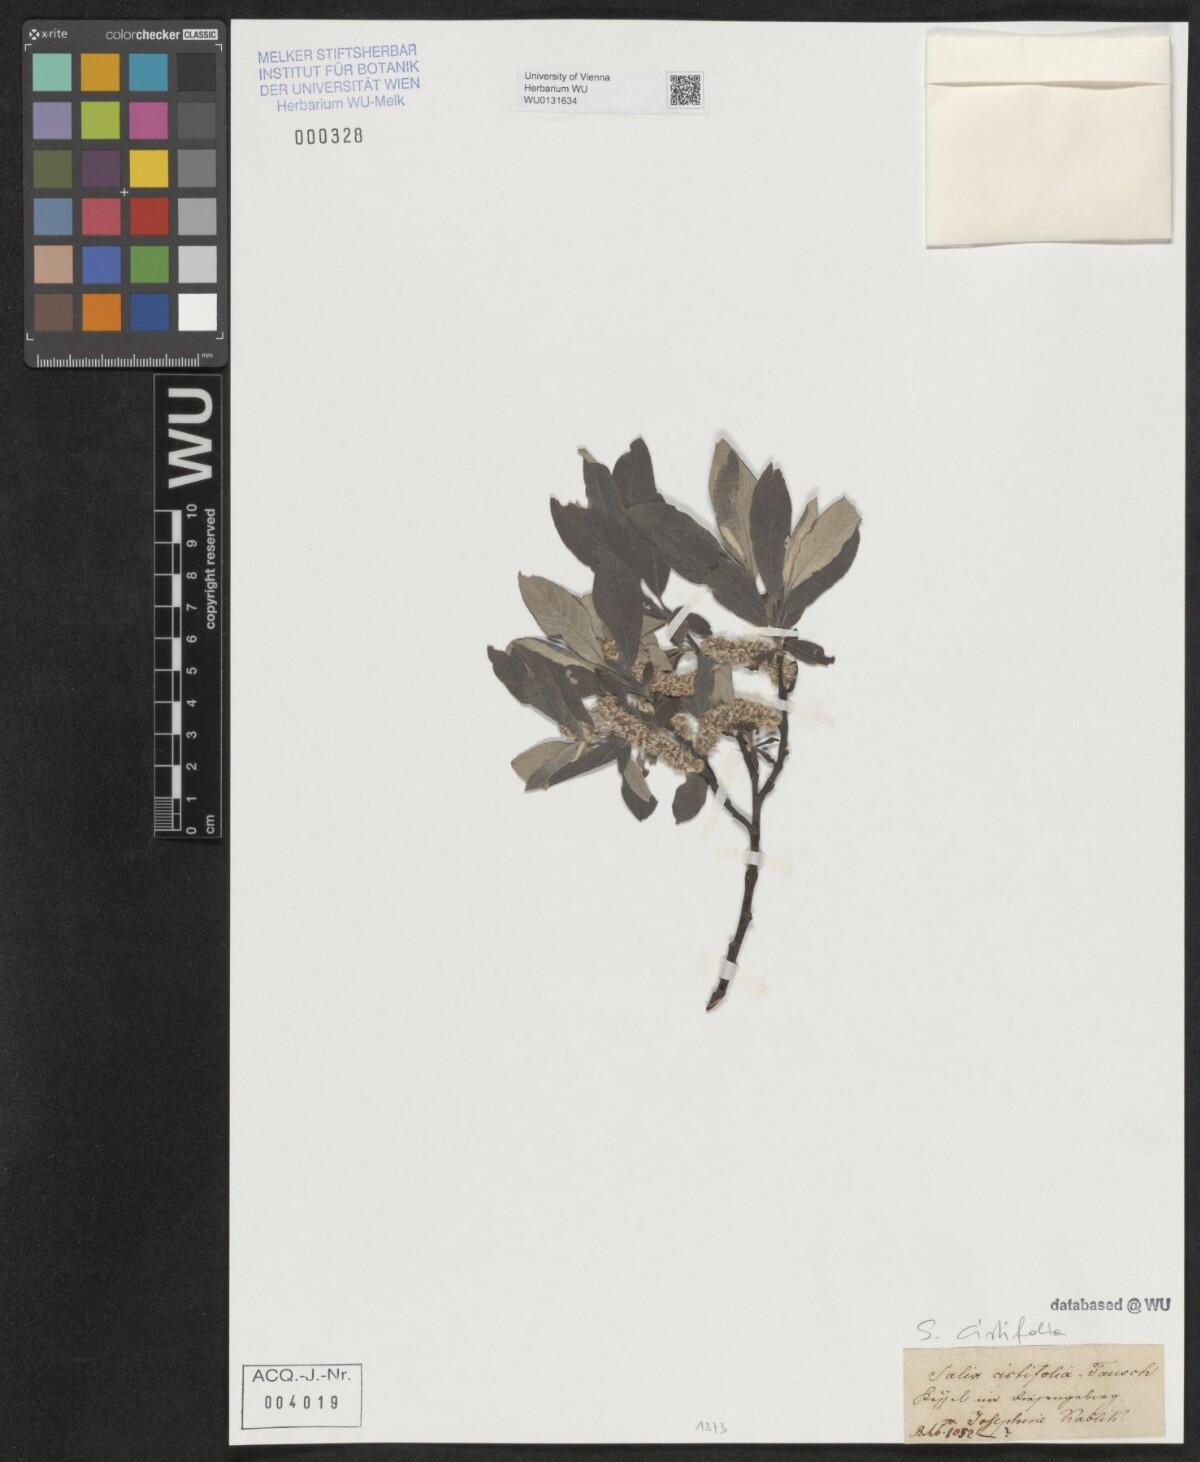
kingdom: Plantae
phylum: Tracheophyta
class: Magnoliopsida
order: Malpighiales
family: Salicaceae
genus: Salix
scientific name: Salix
